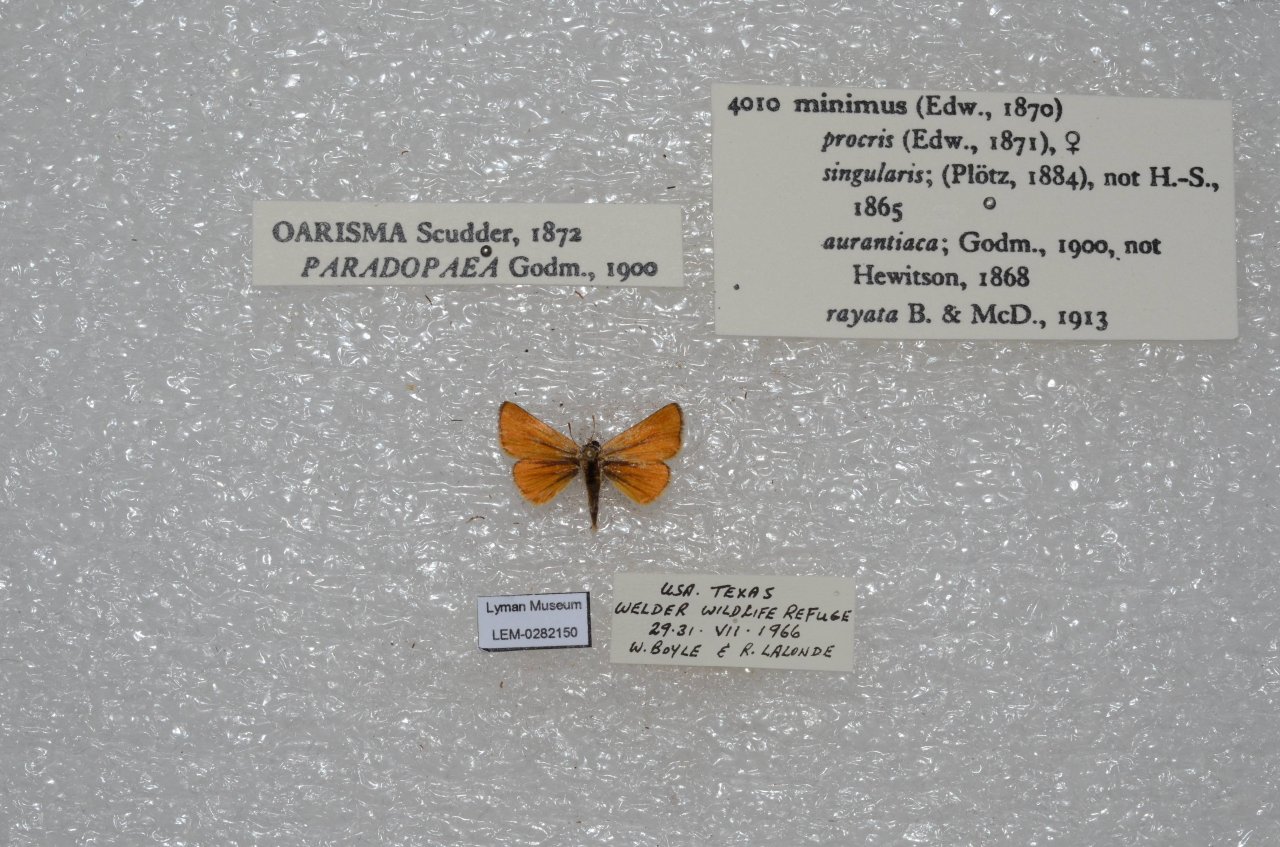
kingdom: Animalia
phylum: Arthropoda
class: Insecta
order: Lepidoptera
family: Hesperiidae
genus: Copaeodes
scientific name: Copaeodes aurantiaca
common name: Orange Skipperling
